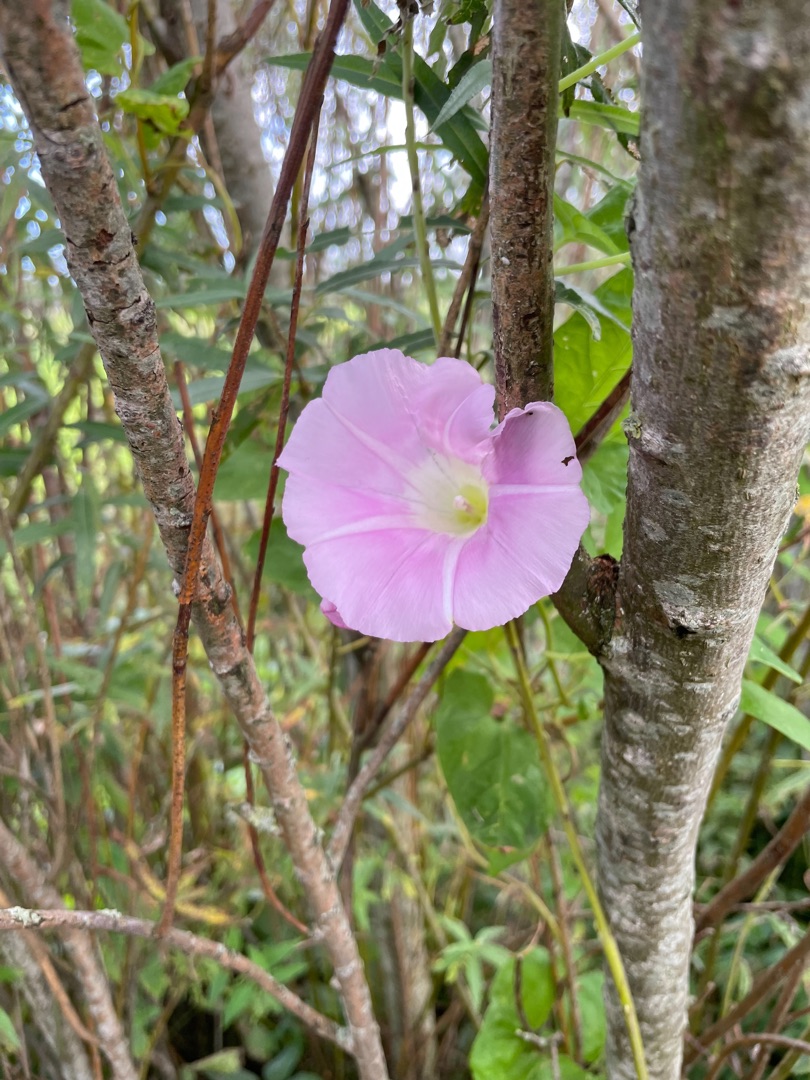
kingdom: Plantae
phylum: Tracheophyta
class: Magnoliopsida
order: Solanales
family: Convolvulaceae
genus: Calystegia
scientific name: Calystegia pulchra
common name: Have-snerle
